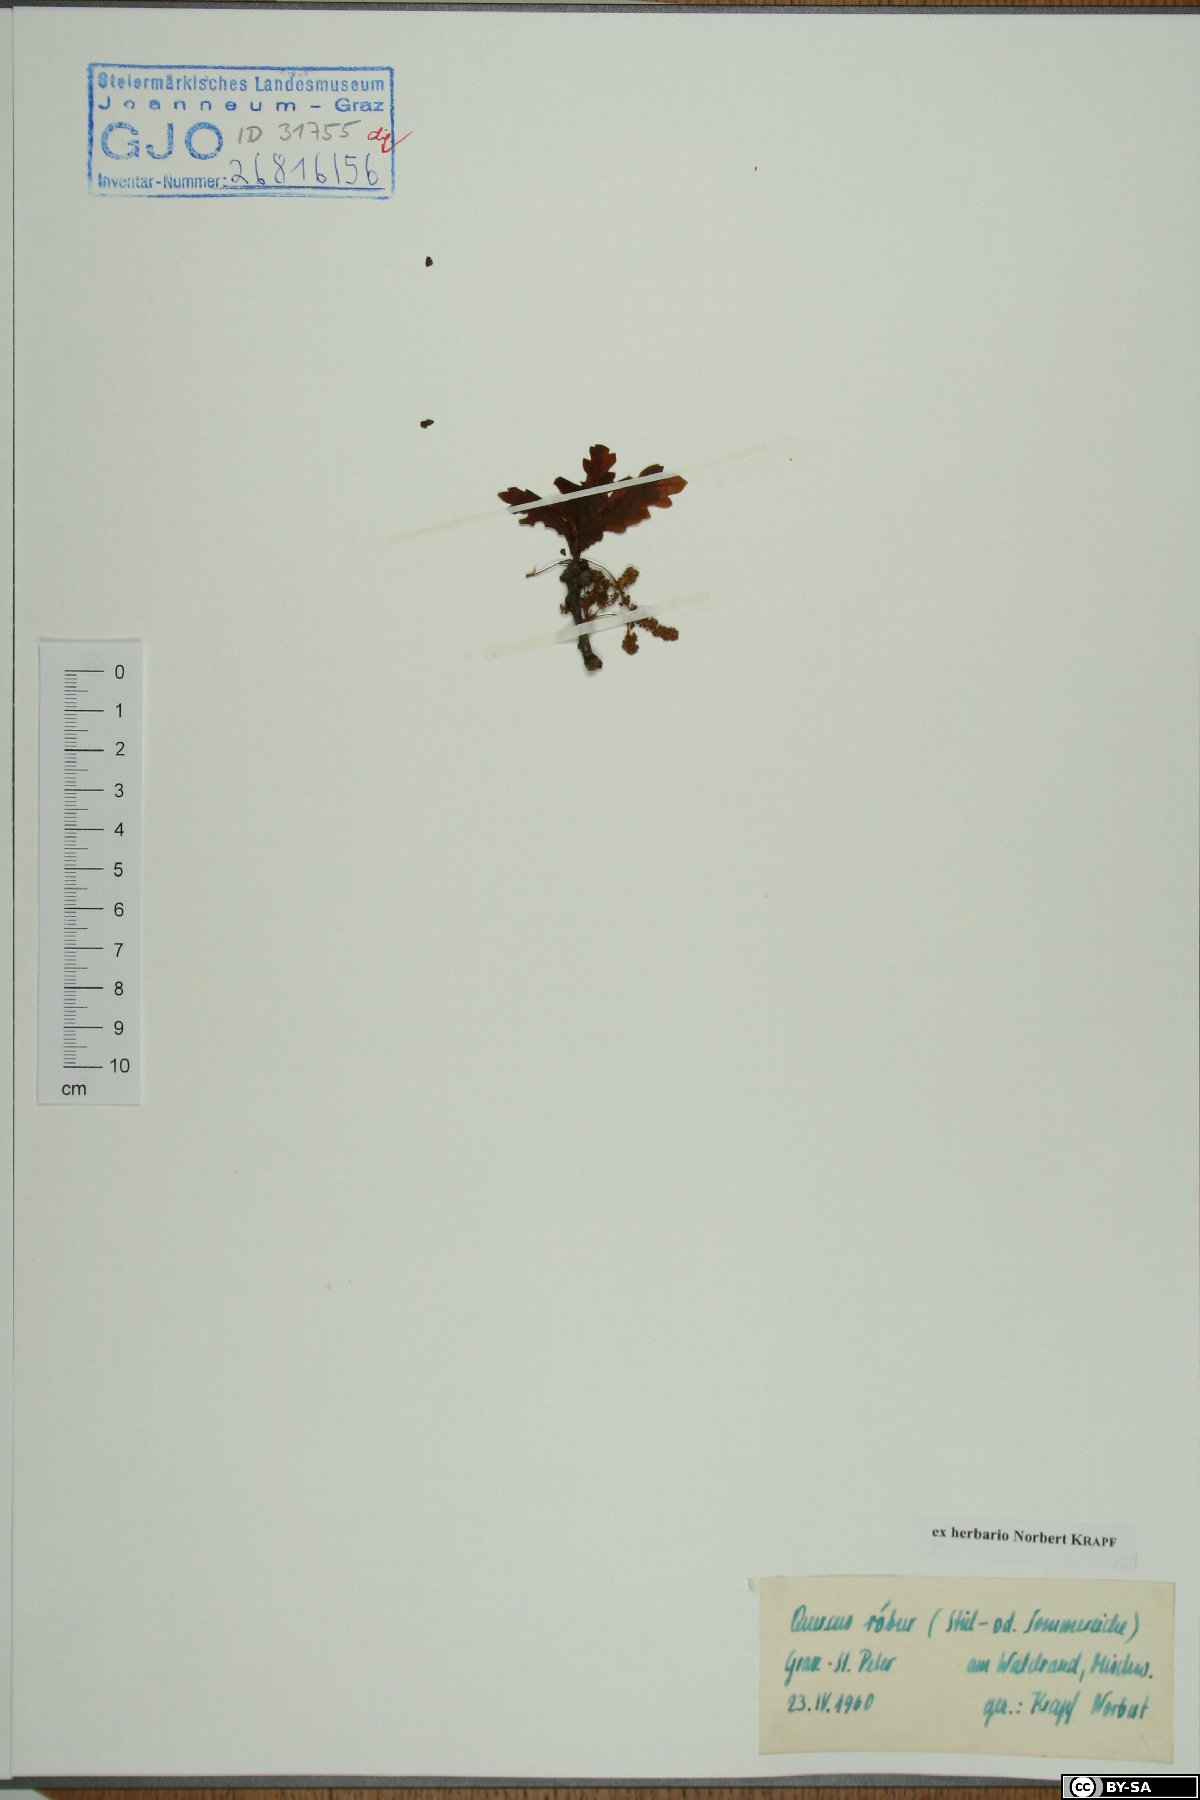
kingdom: Plantae
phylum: Tracheophyta
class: Magnoliopsida
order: Fagales
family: Fagaceae
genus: Quercus
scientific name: Quercus robur
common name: Pedunculate oak
